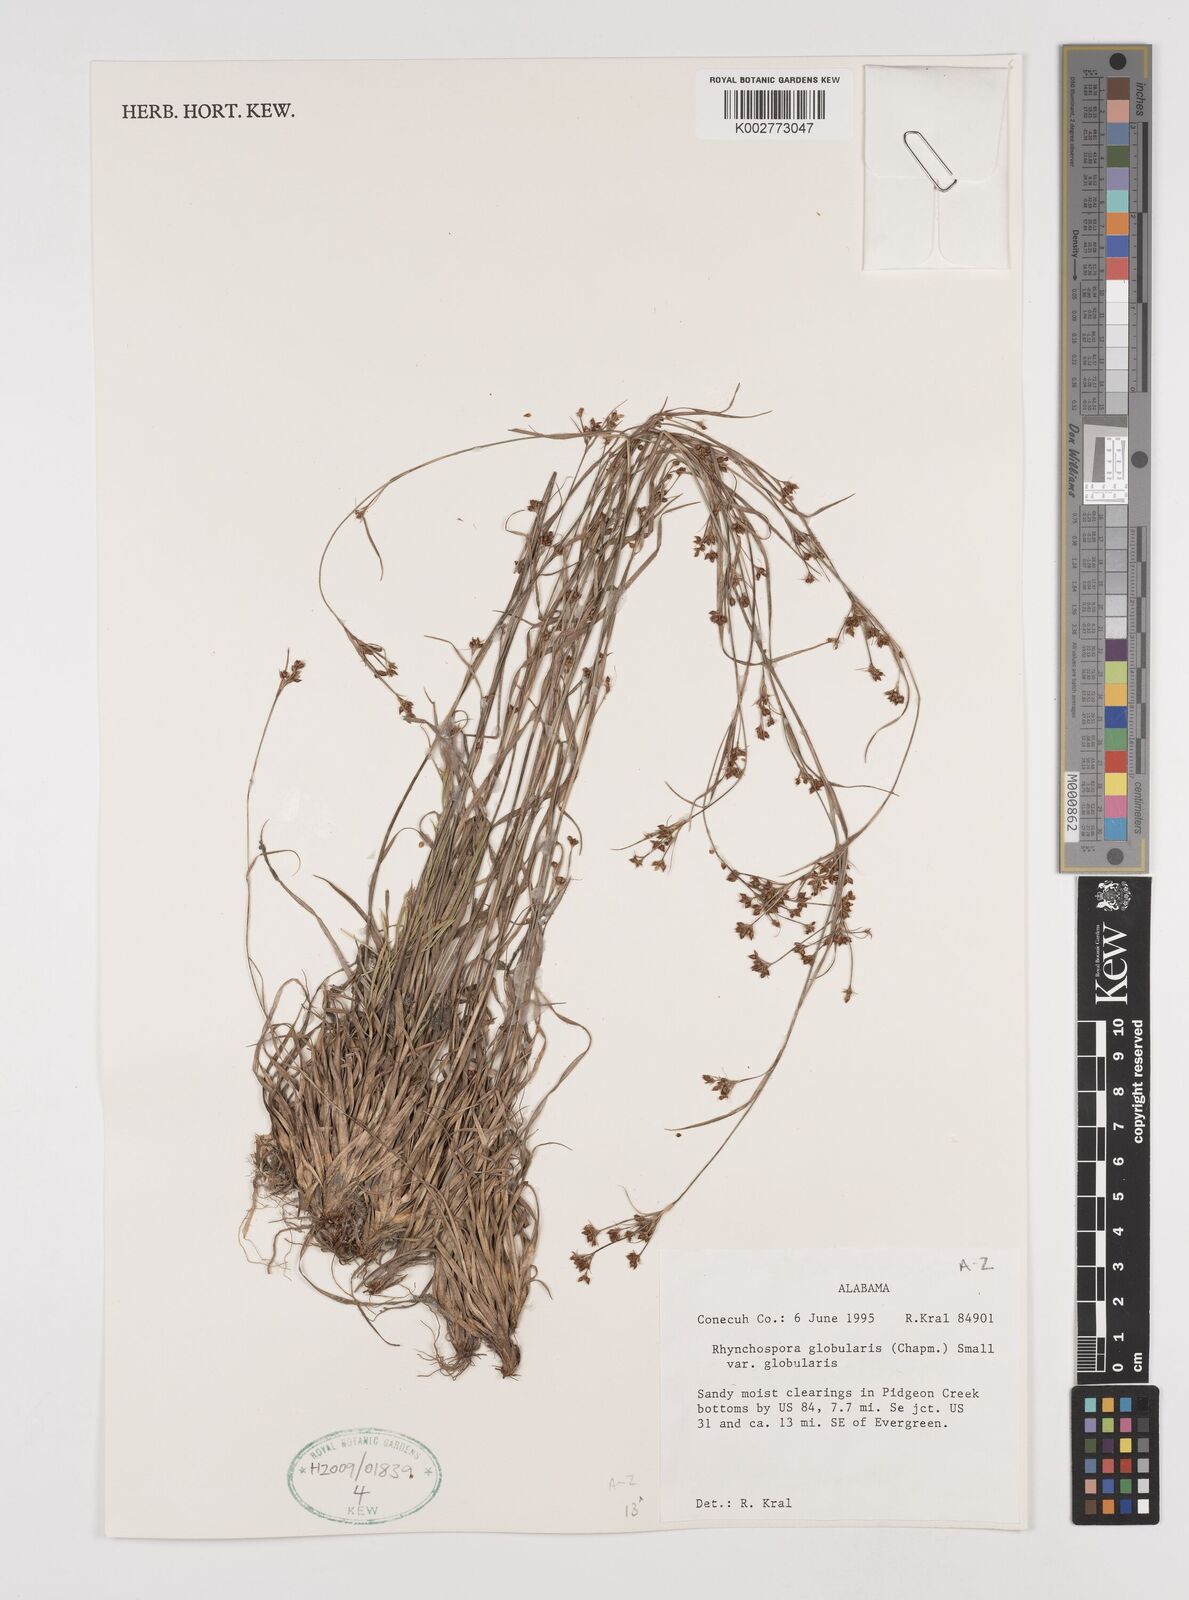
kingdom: Plantae
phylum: Tracheophyta
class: Liliopsida
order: Poales
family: Cyperaceae
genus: Rhynchospora
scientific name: Rhynchospora globularis
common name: Globe beaksedge
